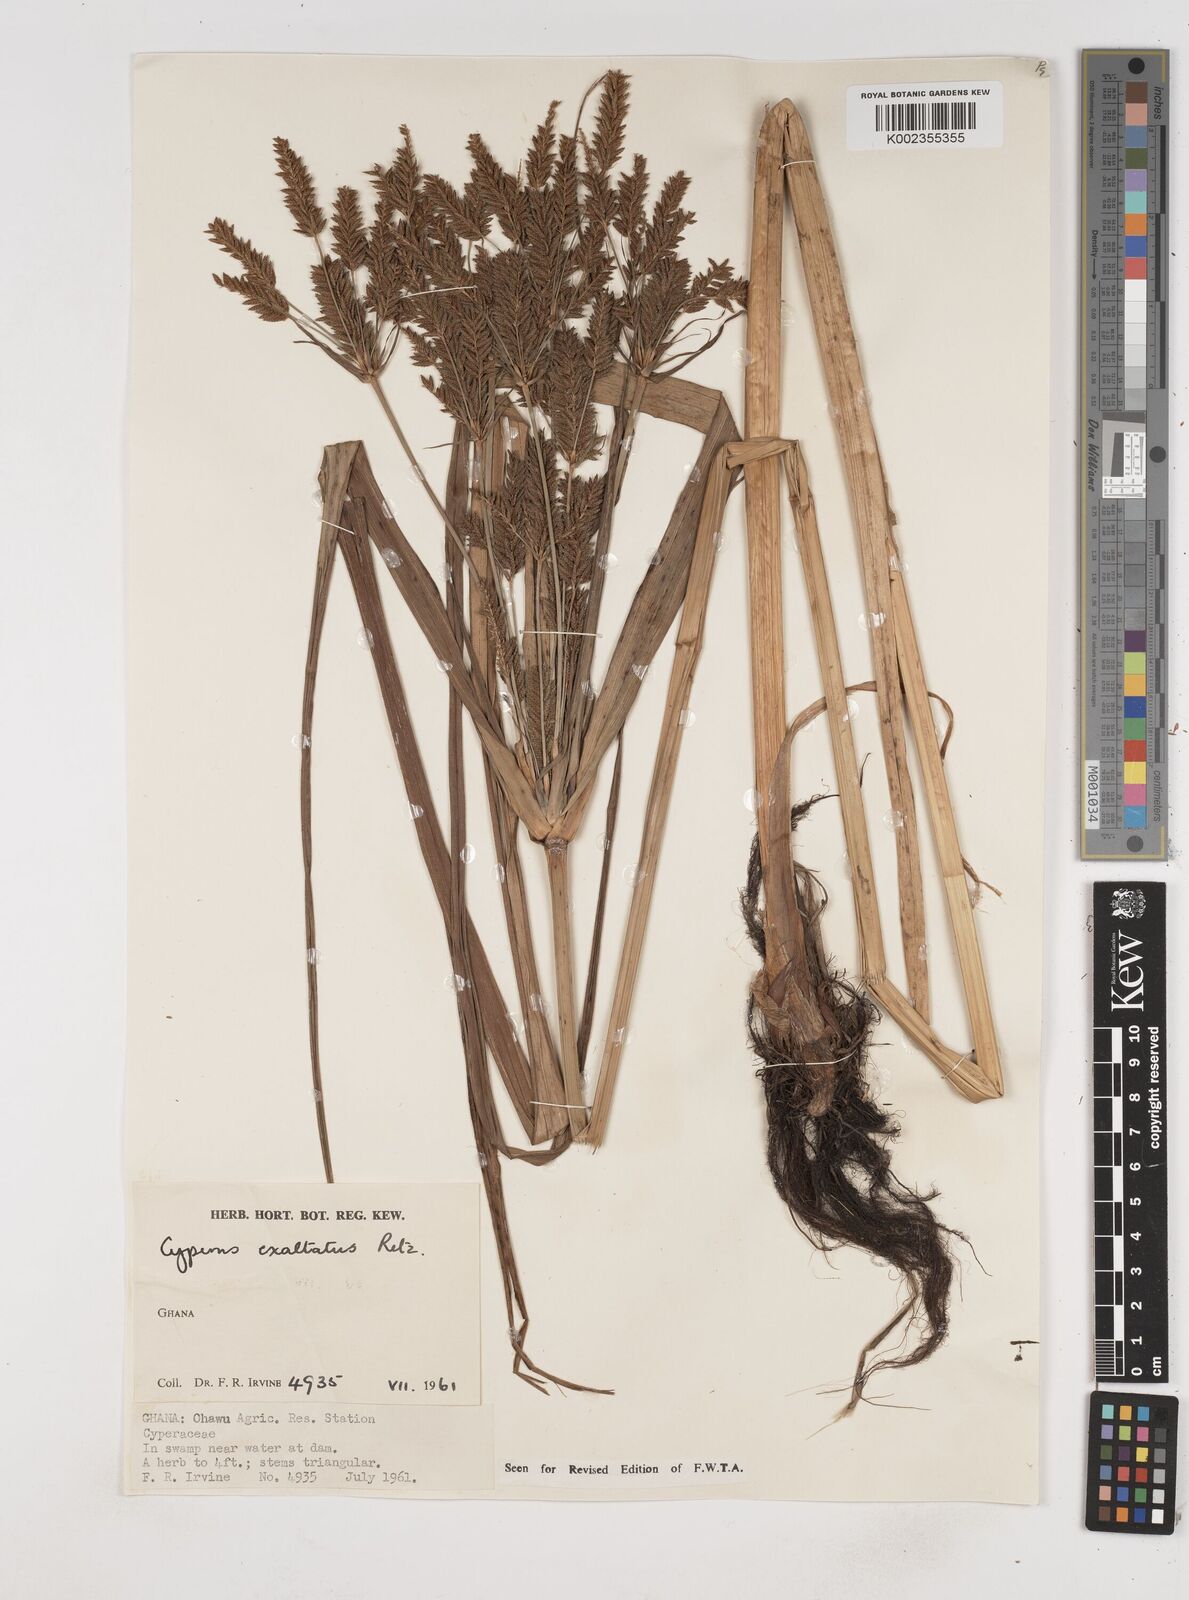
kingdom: Plantae
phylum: Tracheophyta
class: Liliopsida
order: Poales
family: Cyperaceae
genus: Cyperus
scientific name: Cyperus exaltatus
